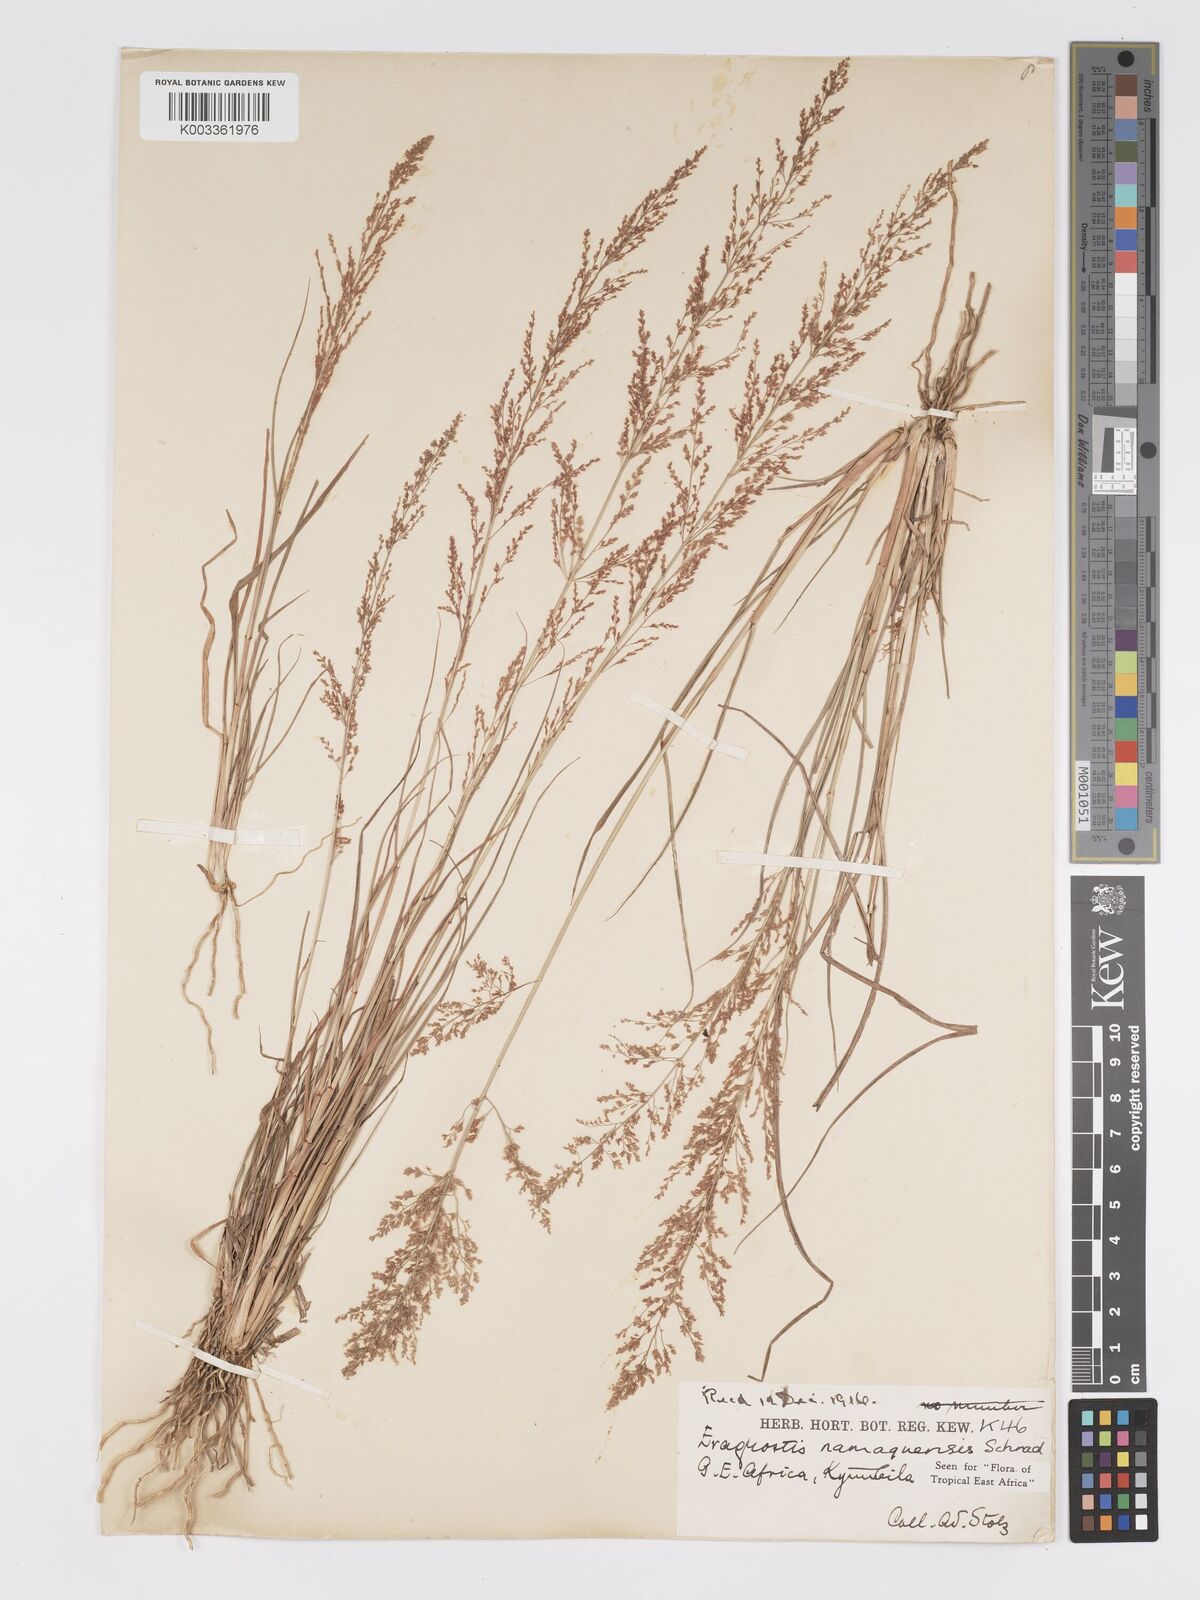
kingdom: Plantae
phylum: Tracheophyta
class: Liliopsida
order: Poales
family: Poaceae
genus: Eragrostis
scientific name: Eragrostis japonica
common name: Pond lovegrass
